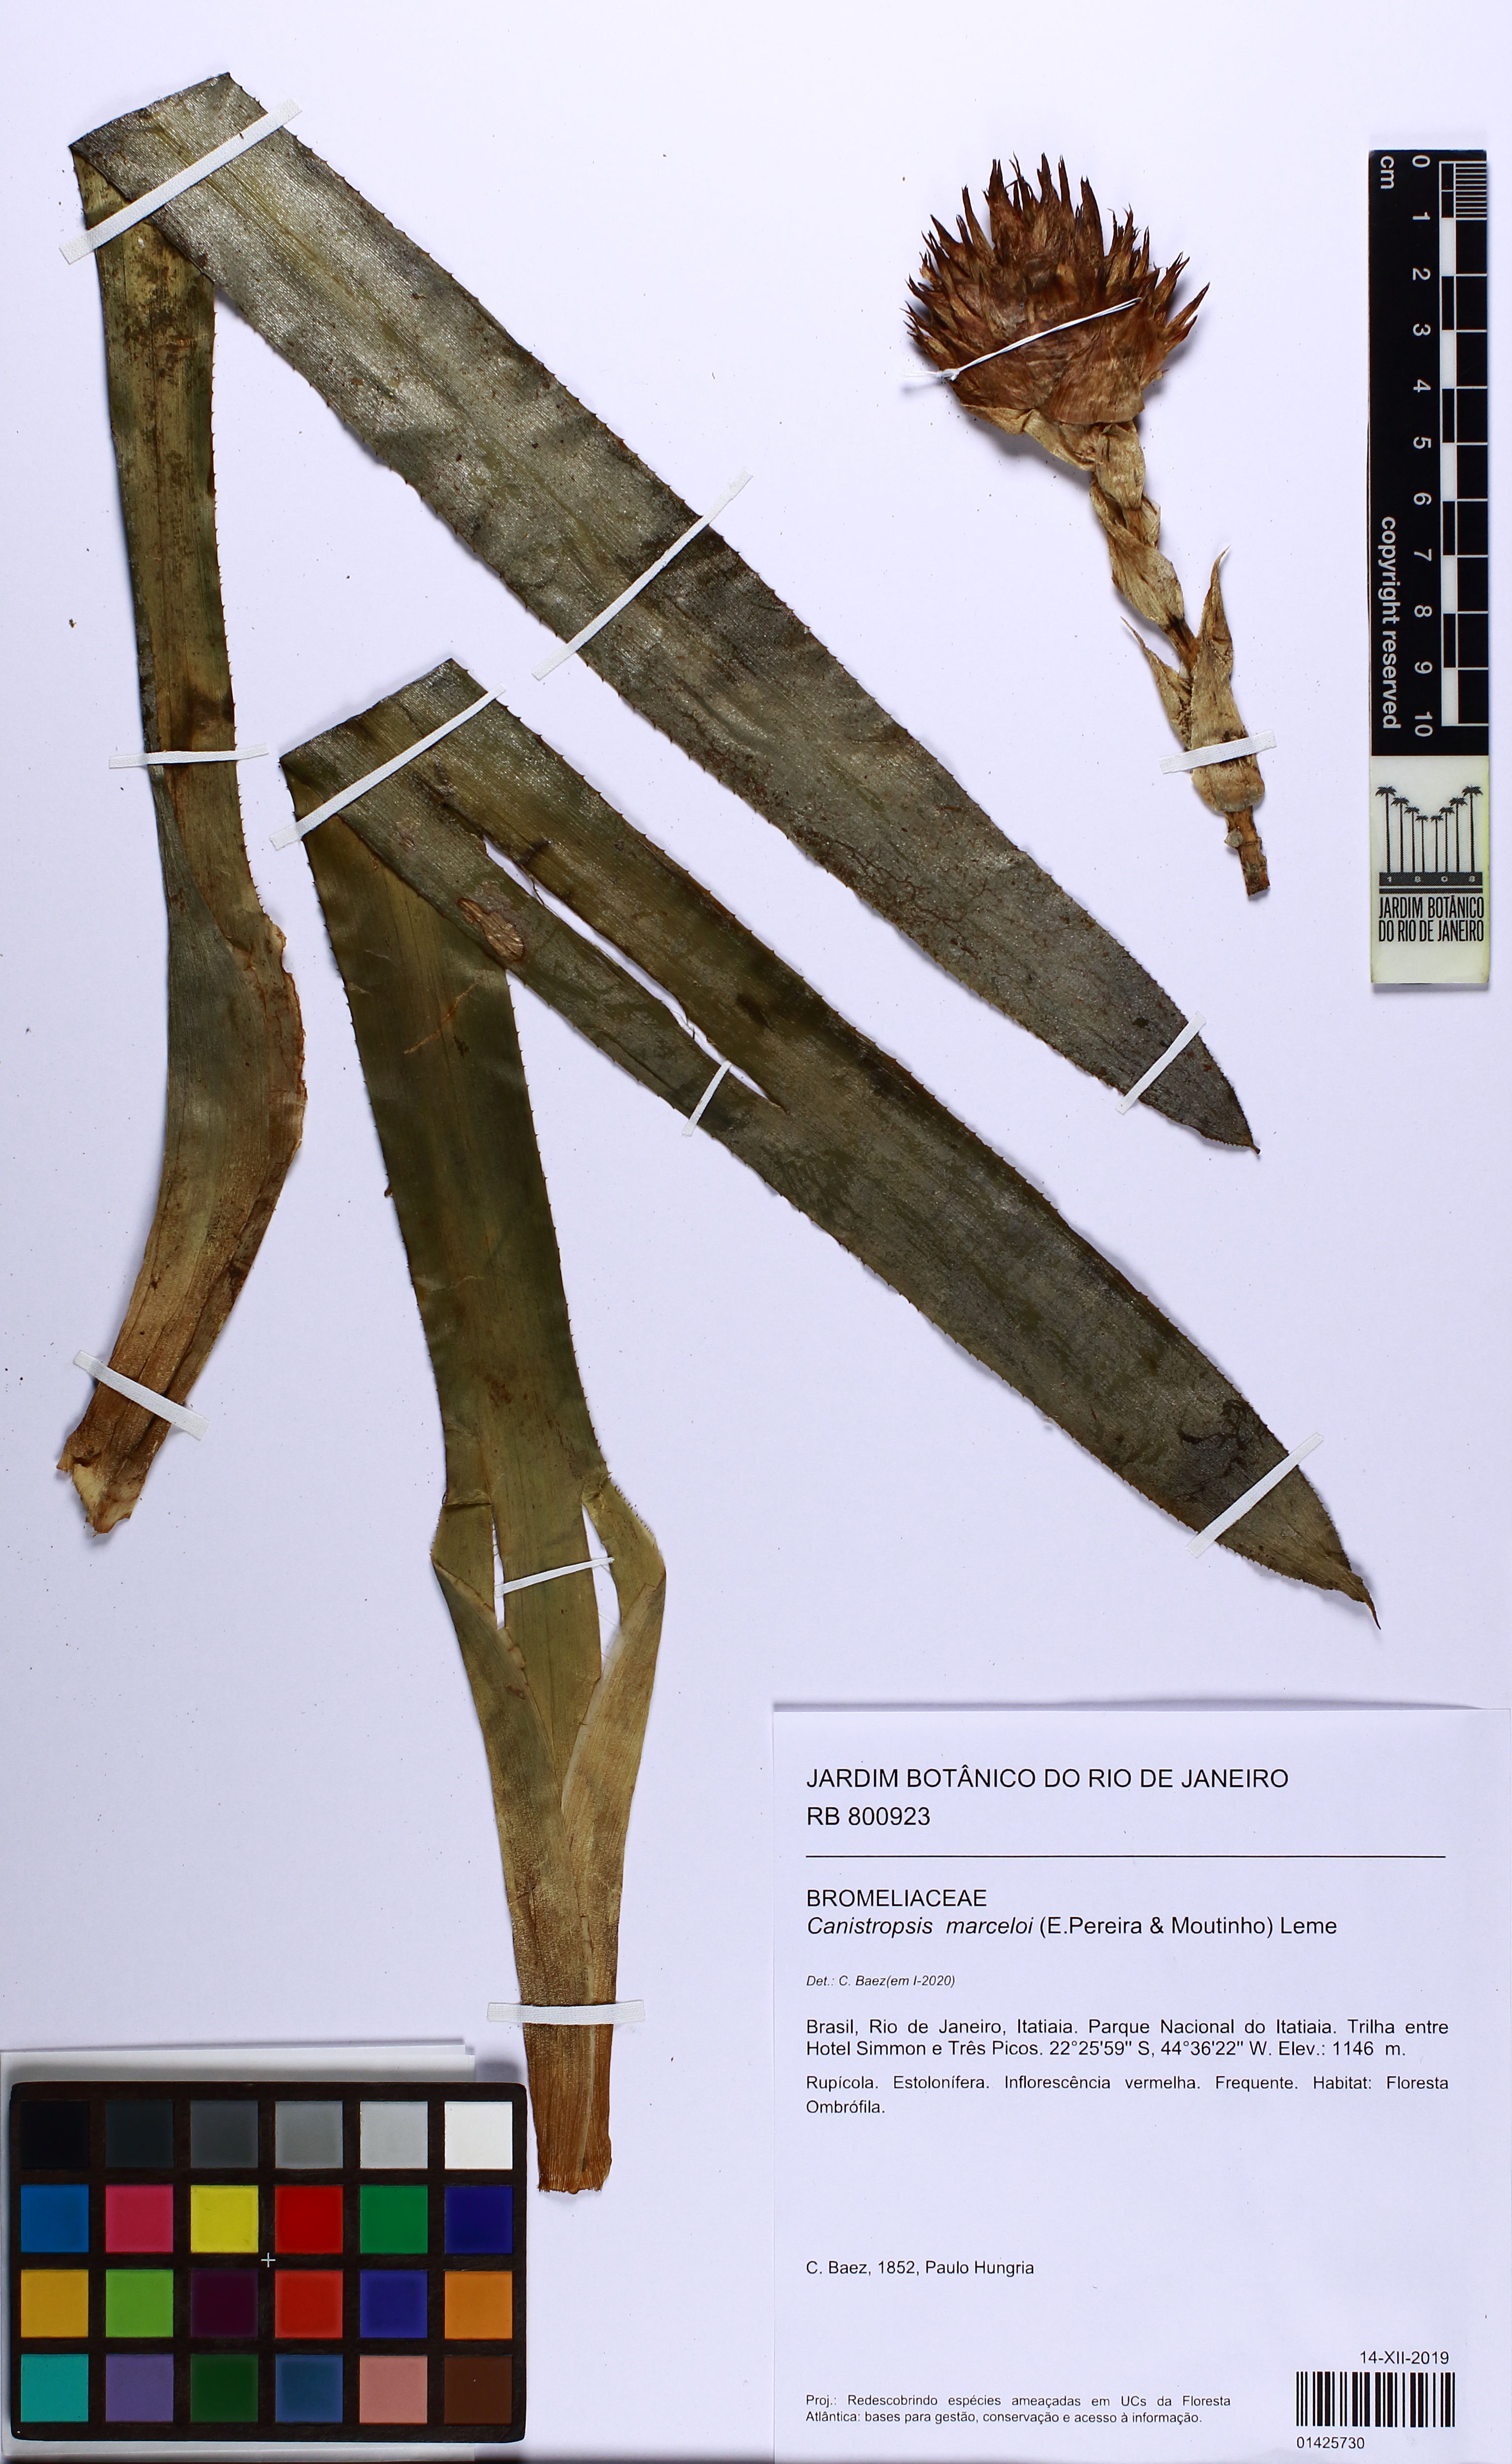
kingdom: Plantae
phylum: Tracheophyta
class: Liliopsida
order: Poales
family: Bromeliaceae
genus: Canistropsis
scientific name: Canistropsis marceloi
